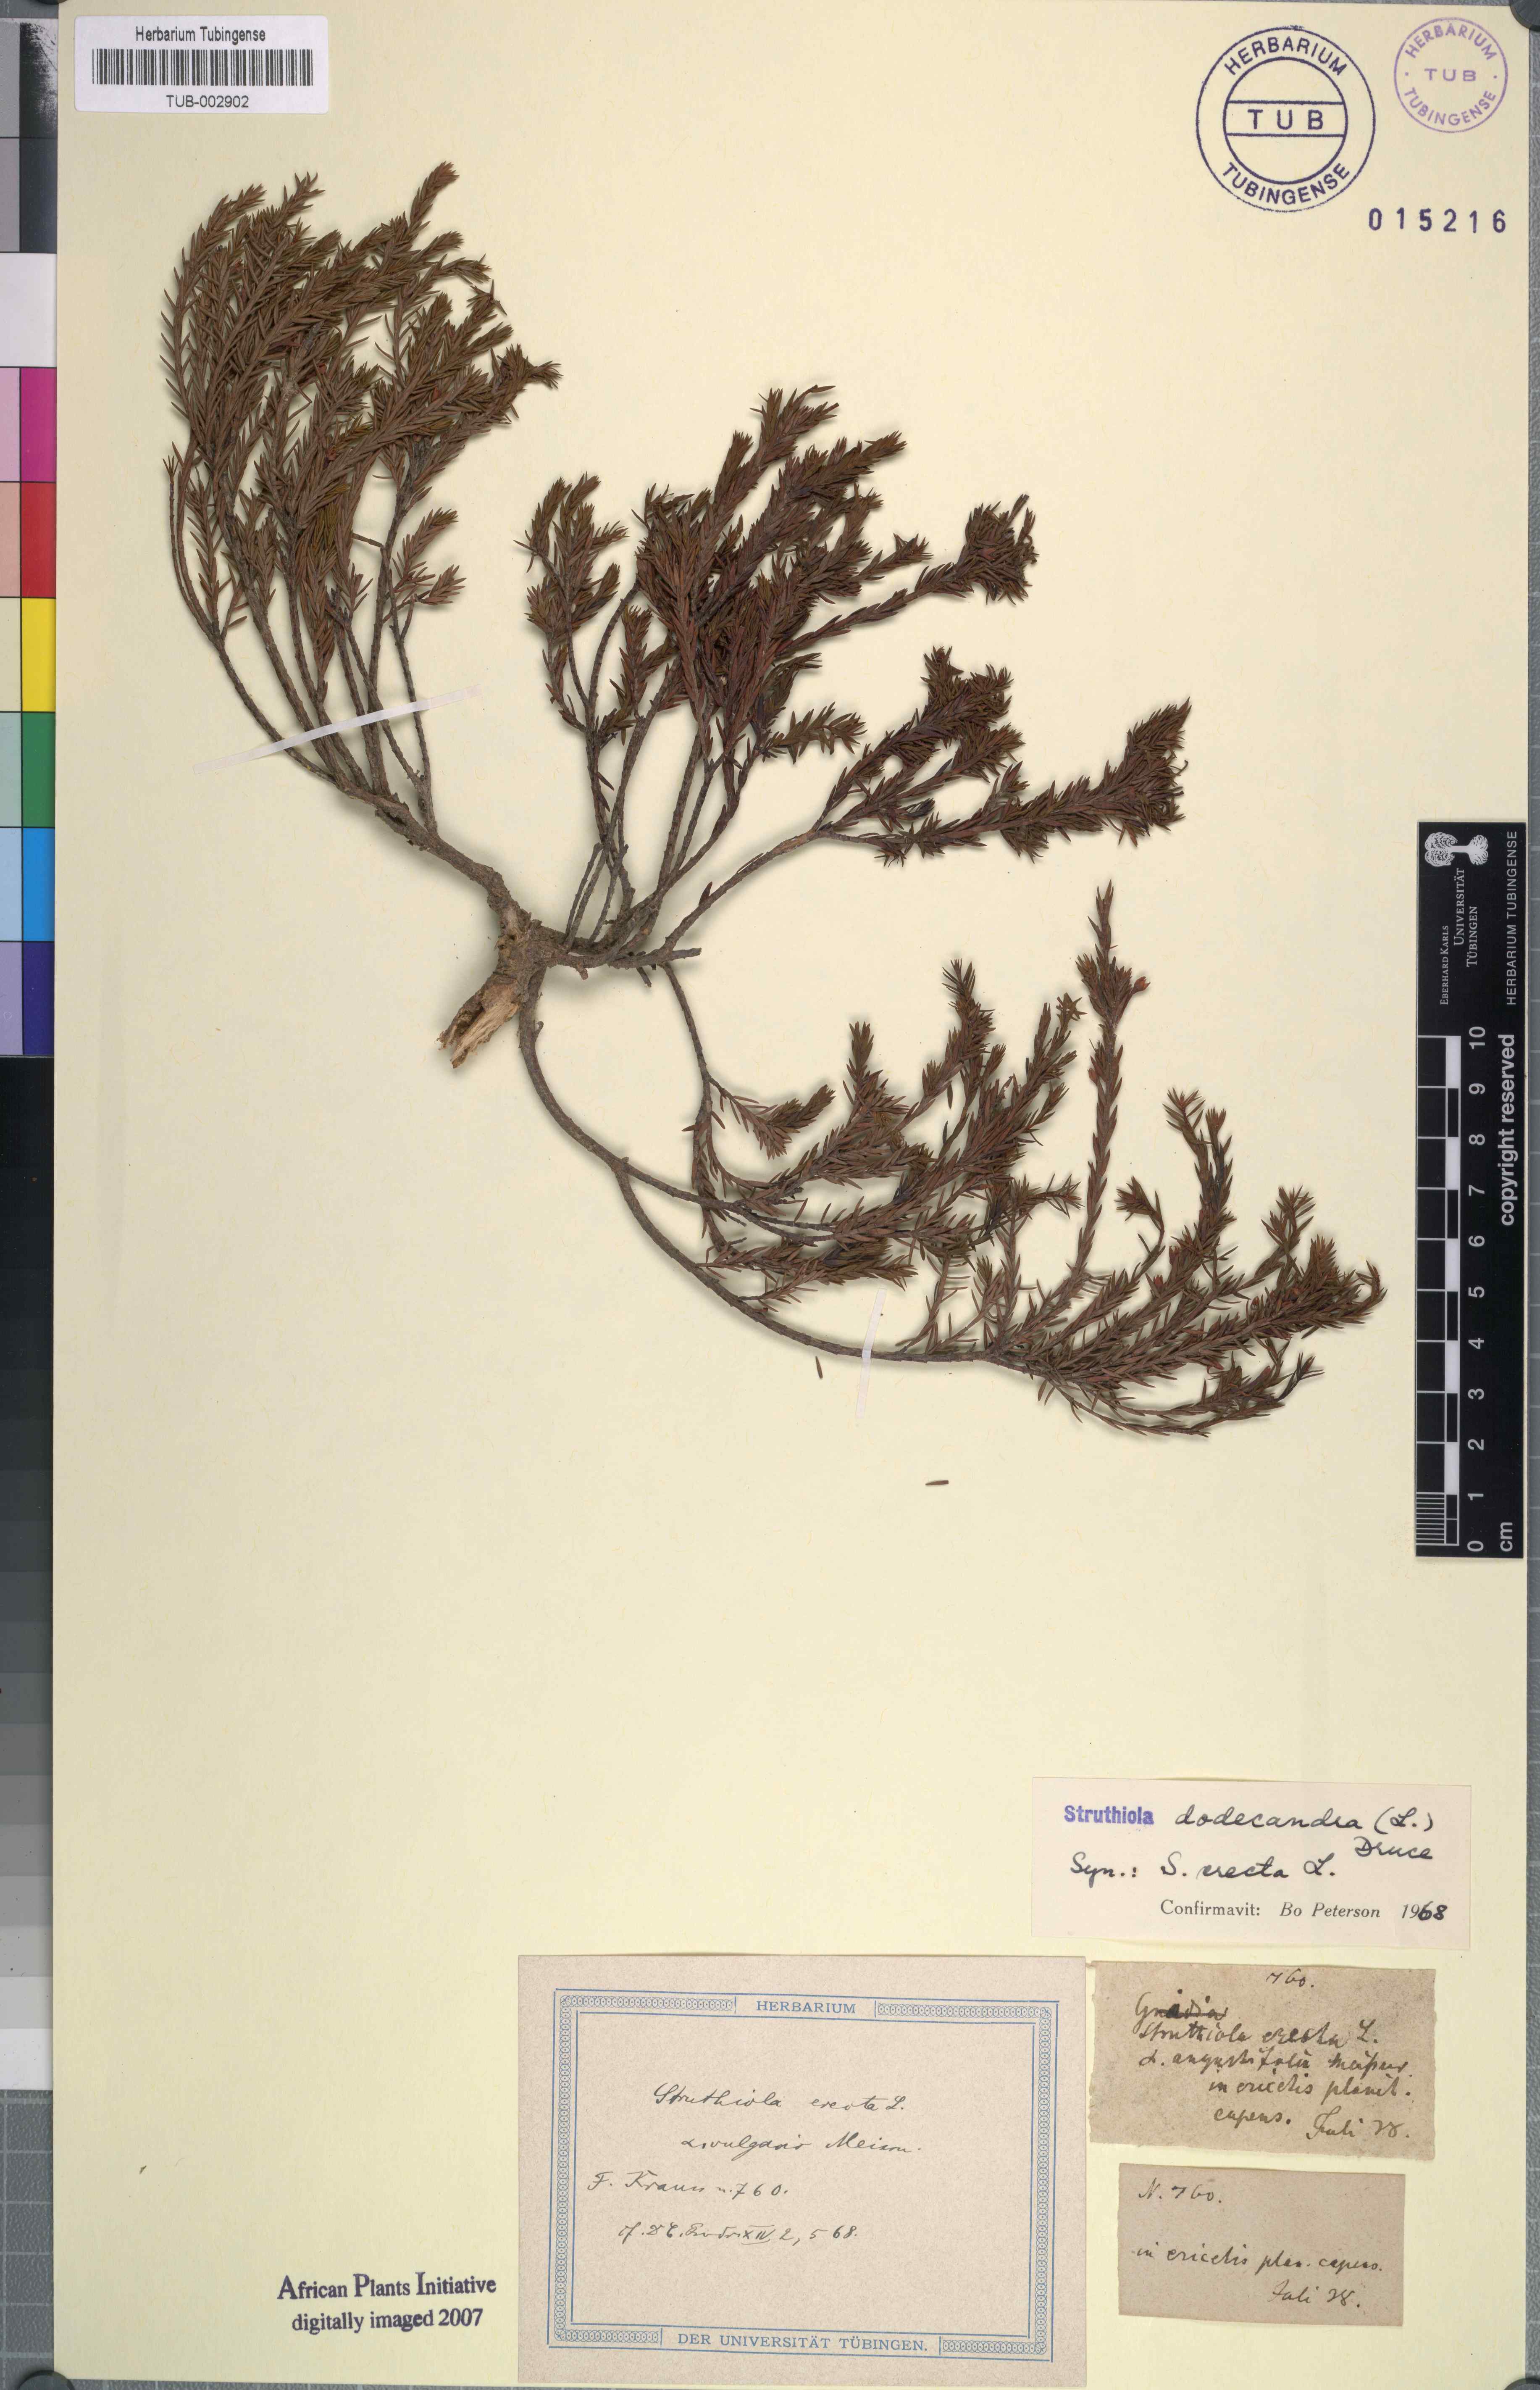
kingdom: Plantae
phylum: Tracheophyta
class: Magnoliopsida
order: Malvales
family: Thymelaeaceae
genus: Struthiola
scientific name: Struthiola dodecandra
